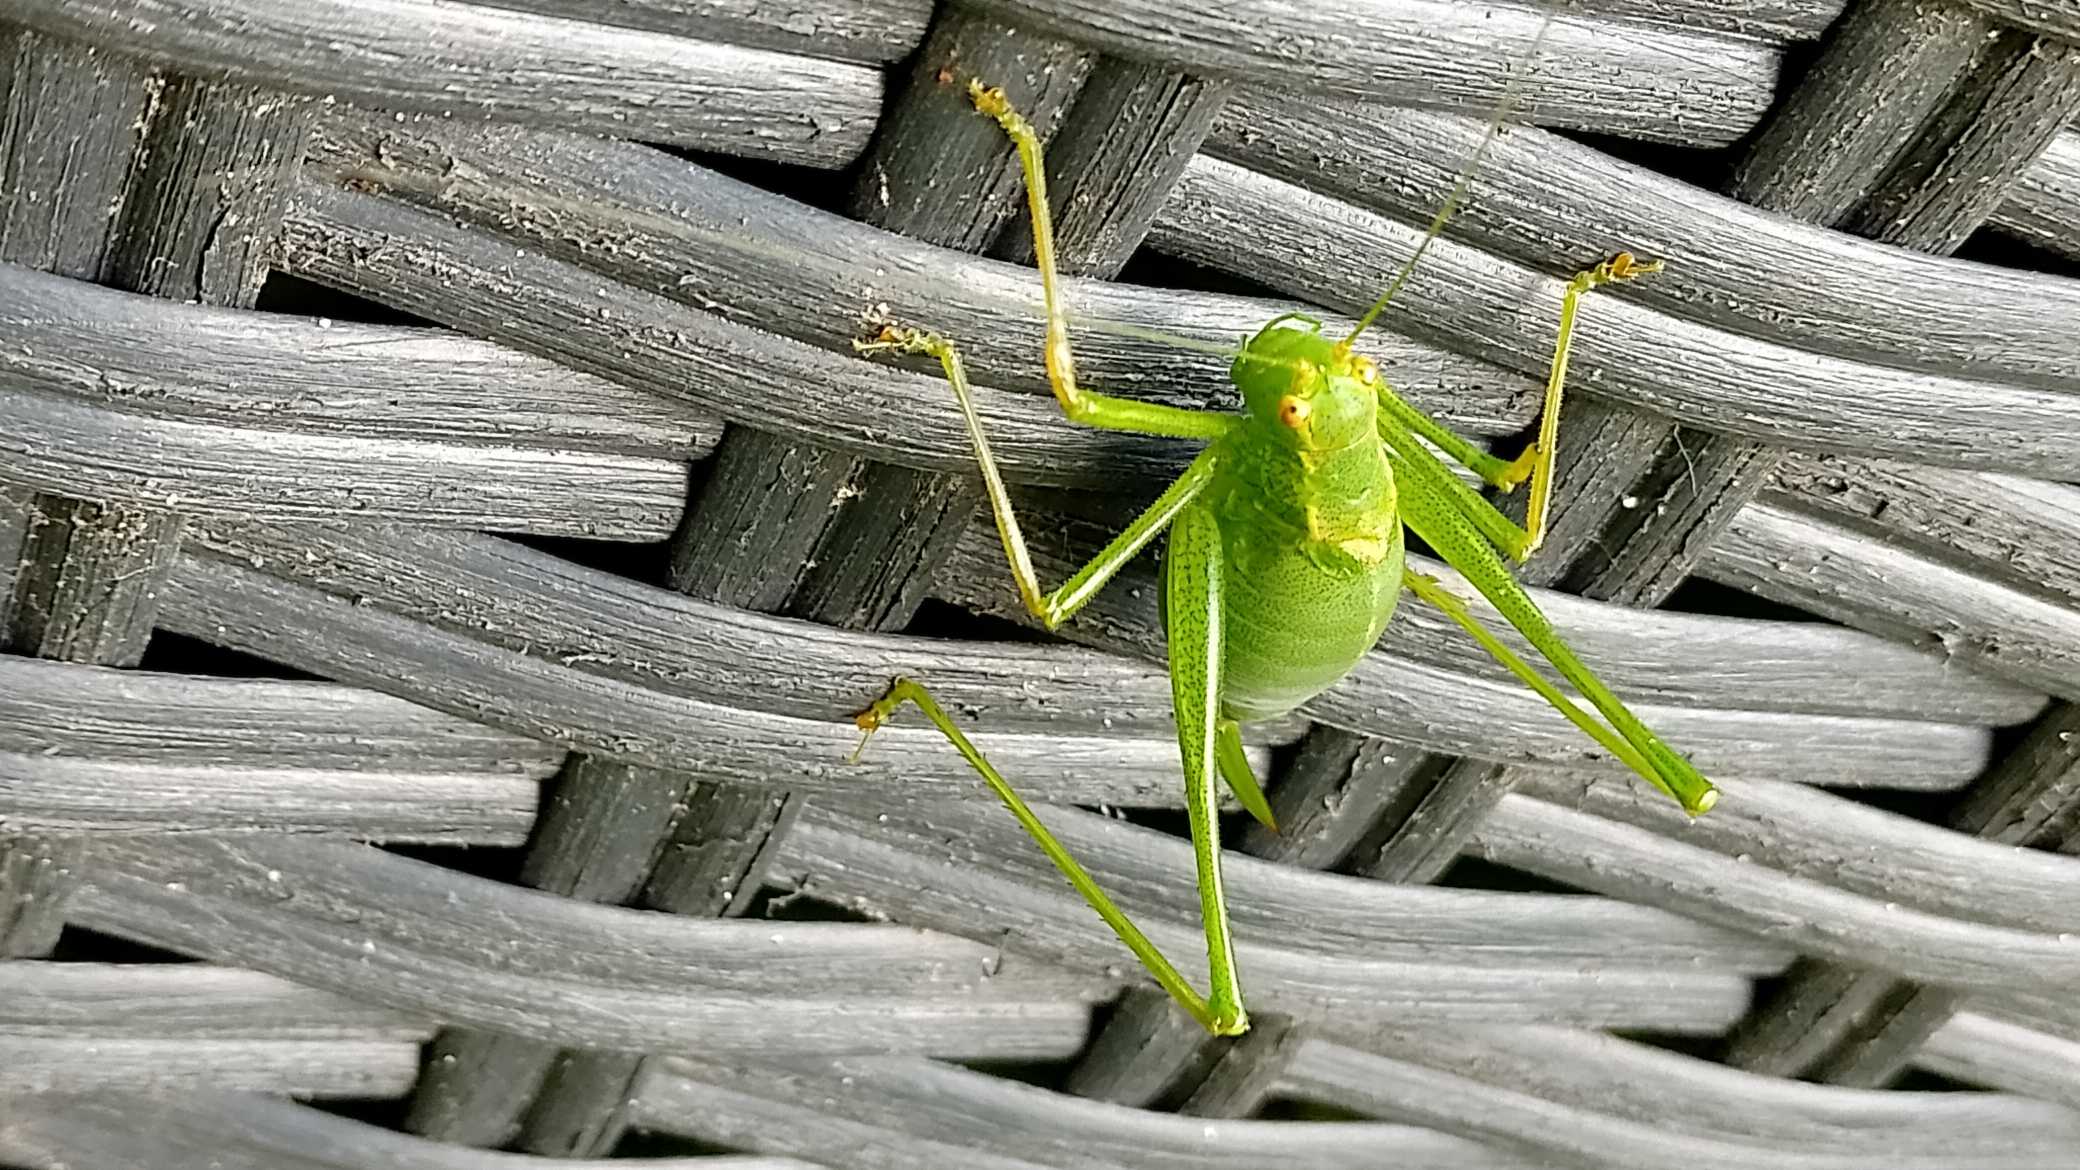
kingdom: Animalia
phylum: Arthropoda
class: Insecta
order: Orthoptera
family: Tettigoniidae
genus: Leptophyes
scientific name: Leptophyes punctatissima
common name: Krumknivgræshoppe
